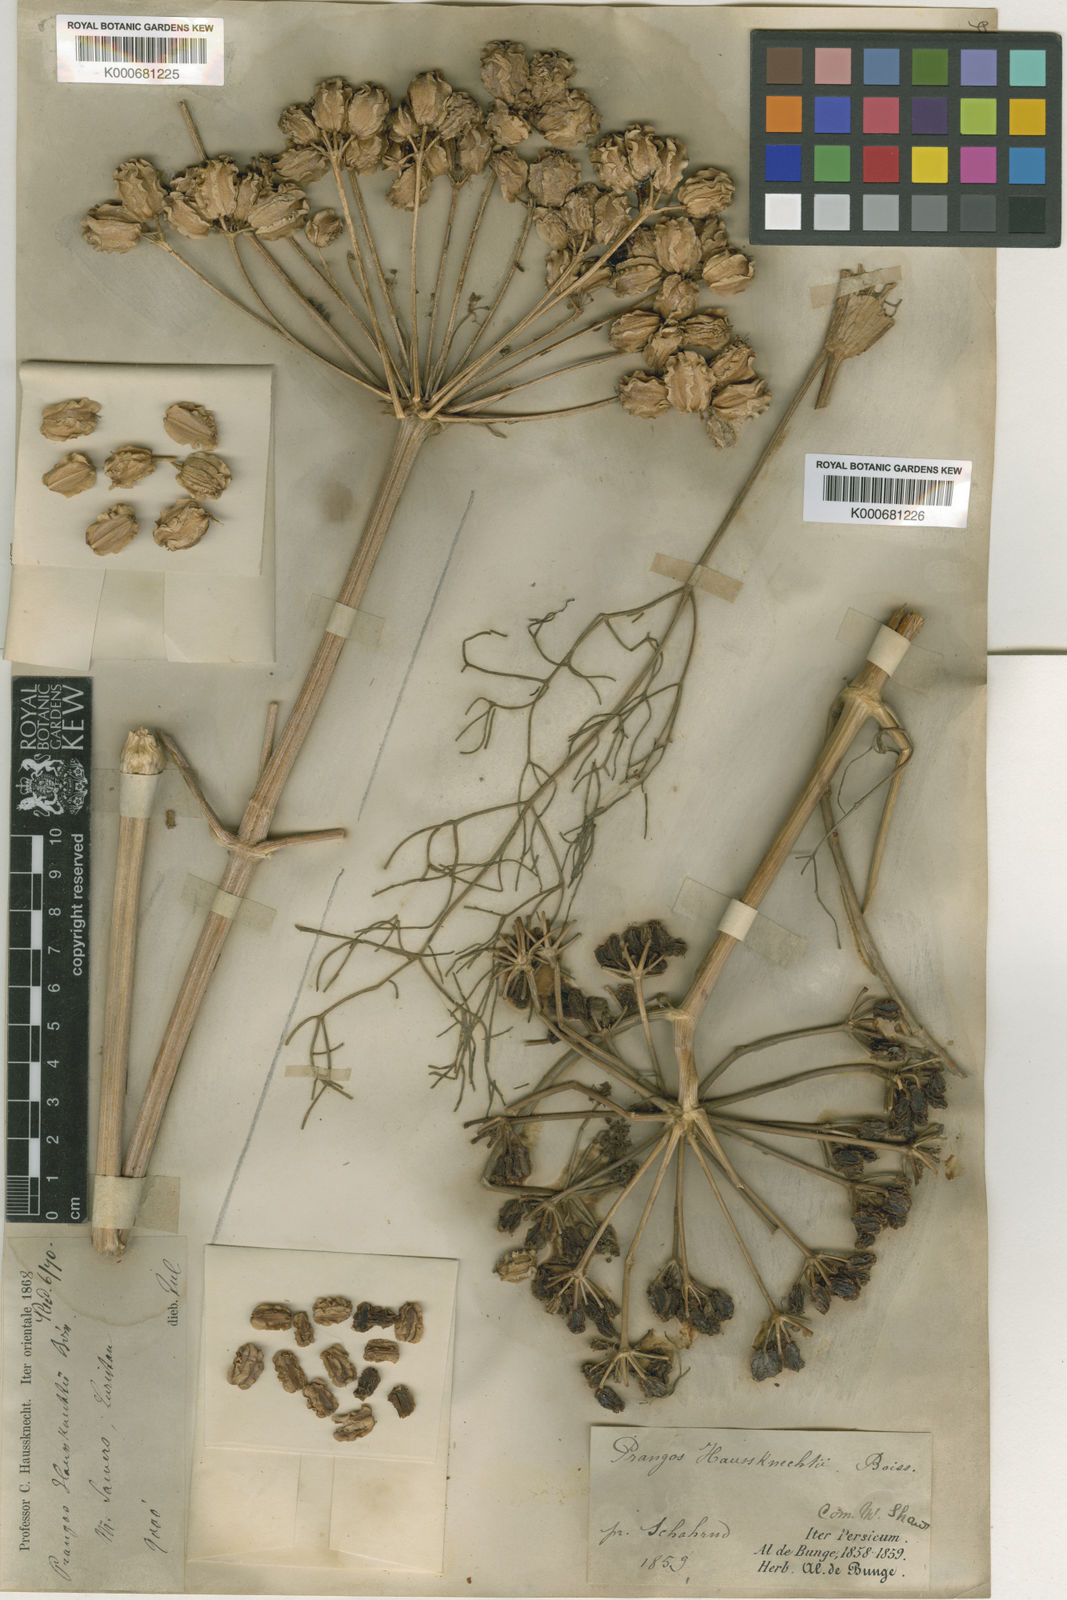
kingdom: Plantae
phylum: Tracheophyta
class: Magnoliopsida
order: Apiales
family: Apiaceae
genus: Prangos
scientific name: Prangos asperula
